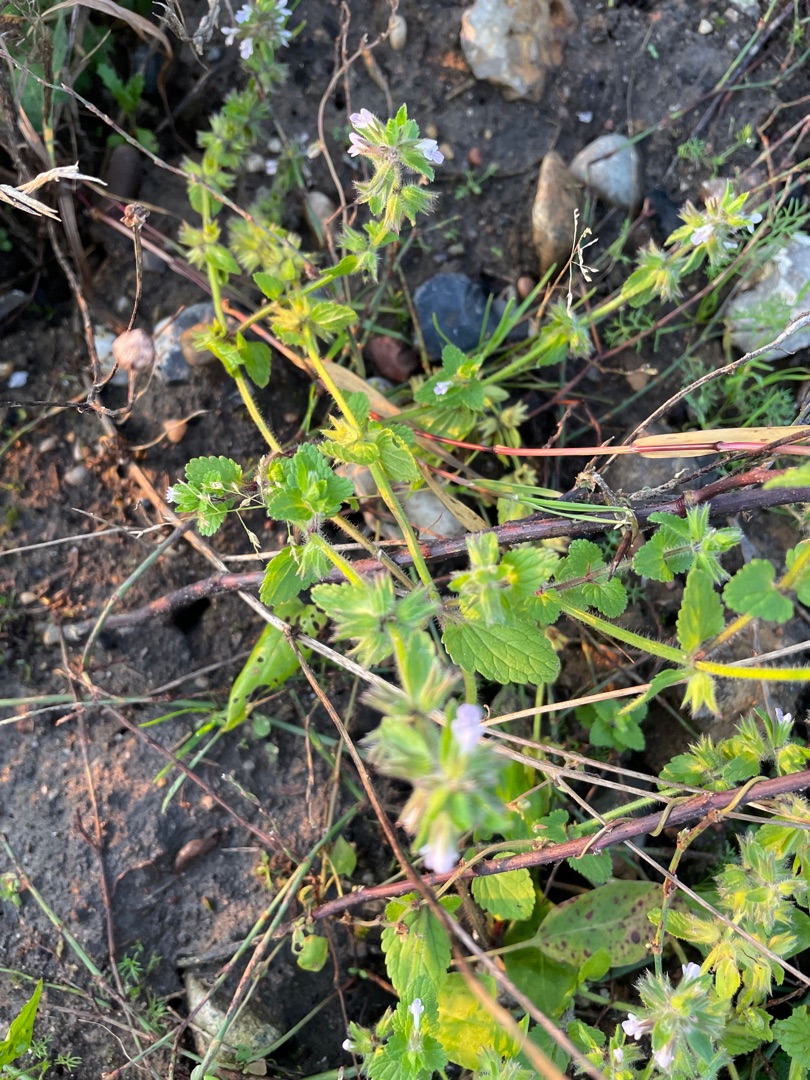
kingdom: Plantae
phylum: Tracheophyta
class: Magnoliopsida
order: Lamiales
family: Lamiaceae
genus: Stachys
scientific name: Stachys arvensis
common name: Ager-galtetand
